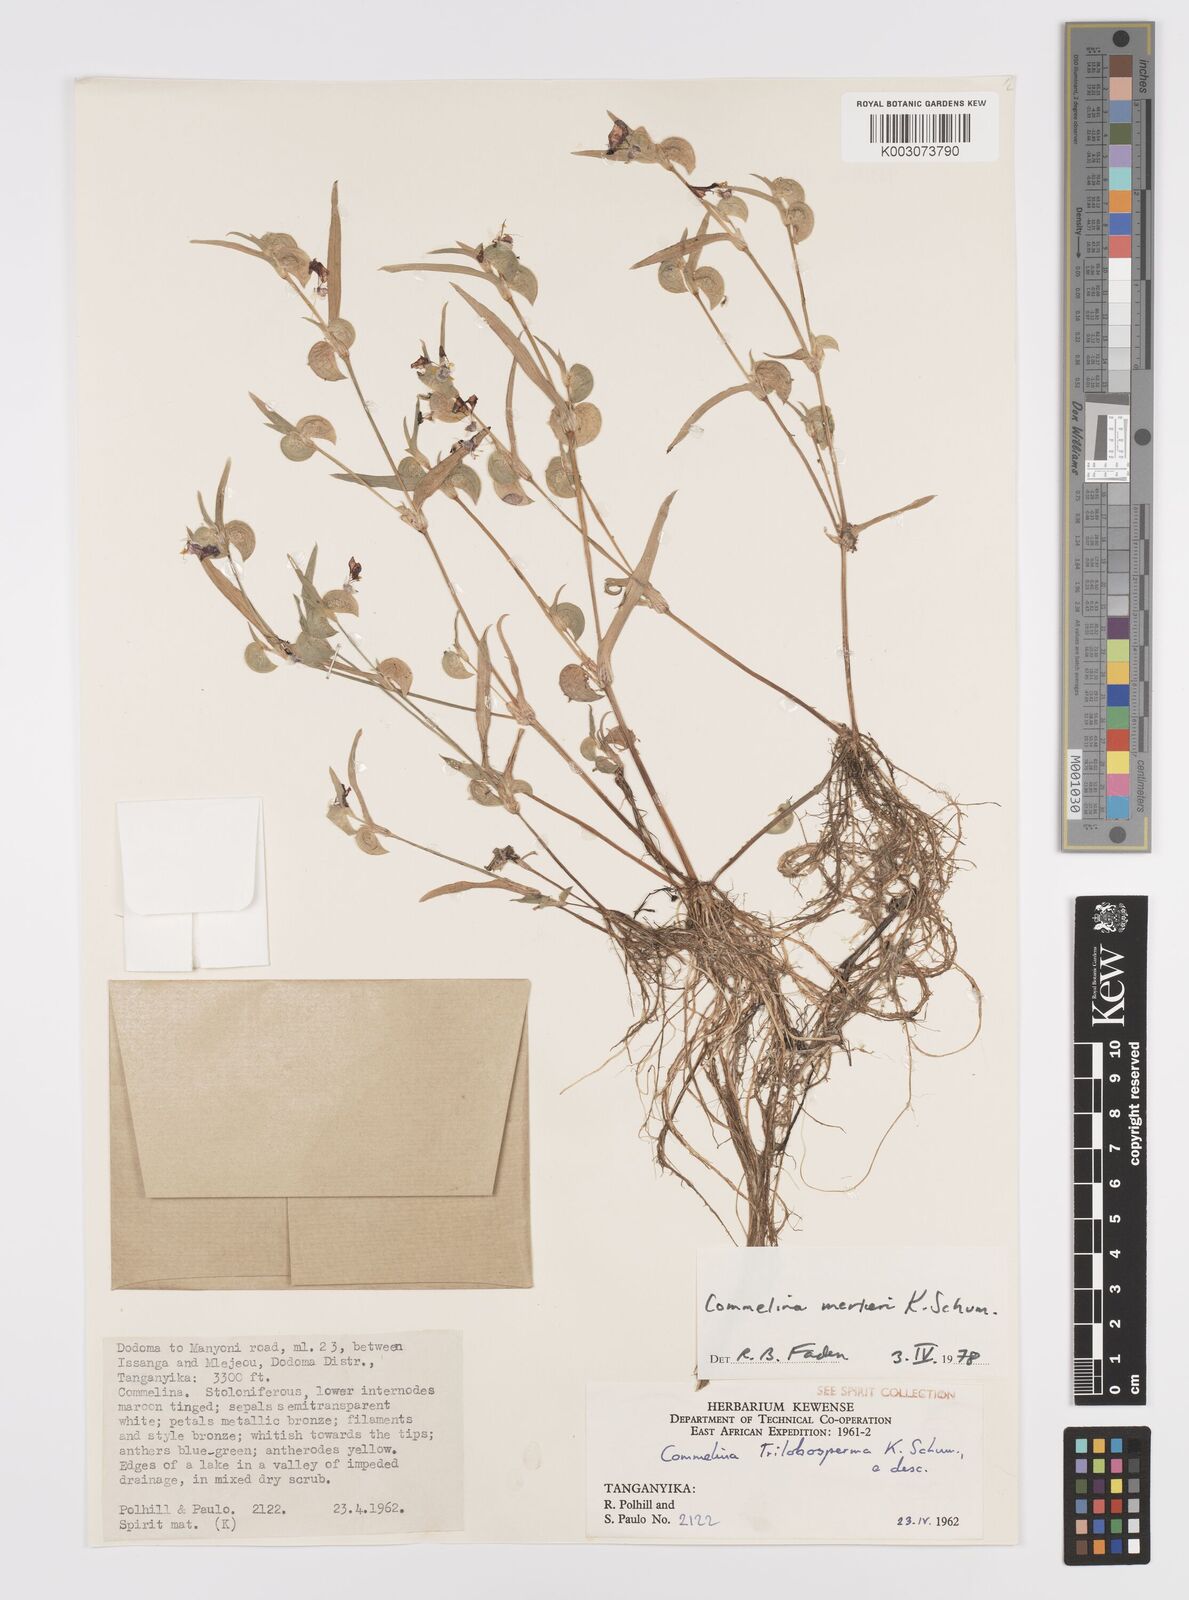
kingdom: Plantae
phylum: Tracheophyta
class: Liliopsida
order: Commelinales
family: Commelinaceae
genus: Commelina
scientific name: Commelina merkeri
